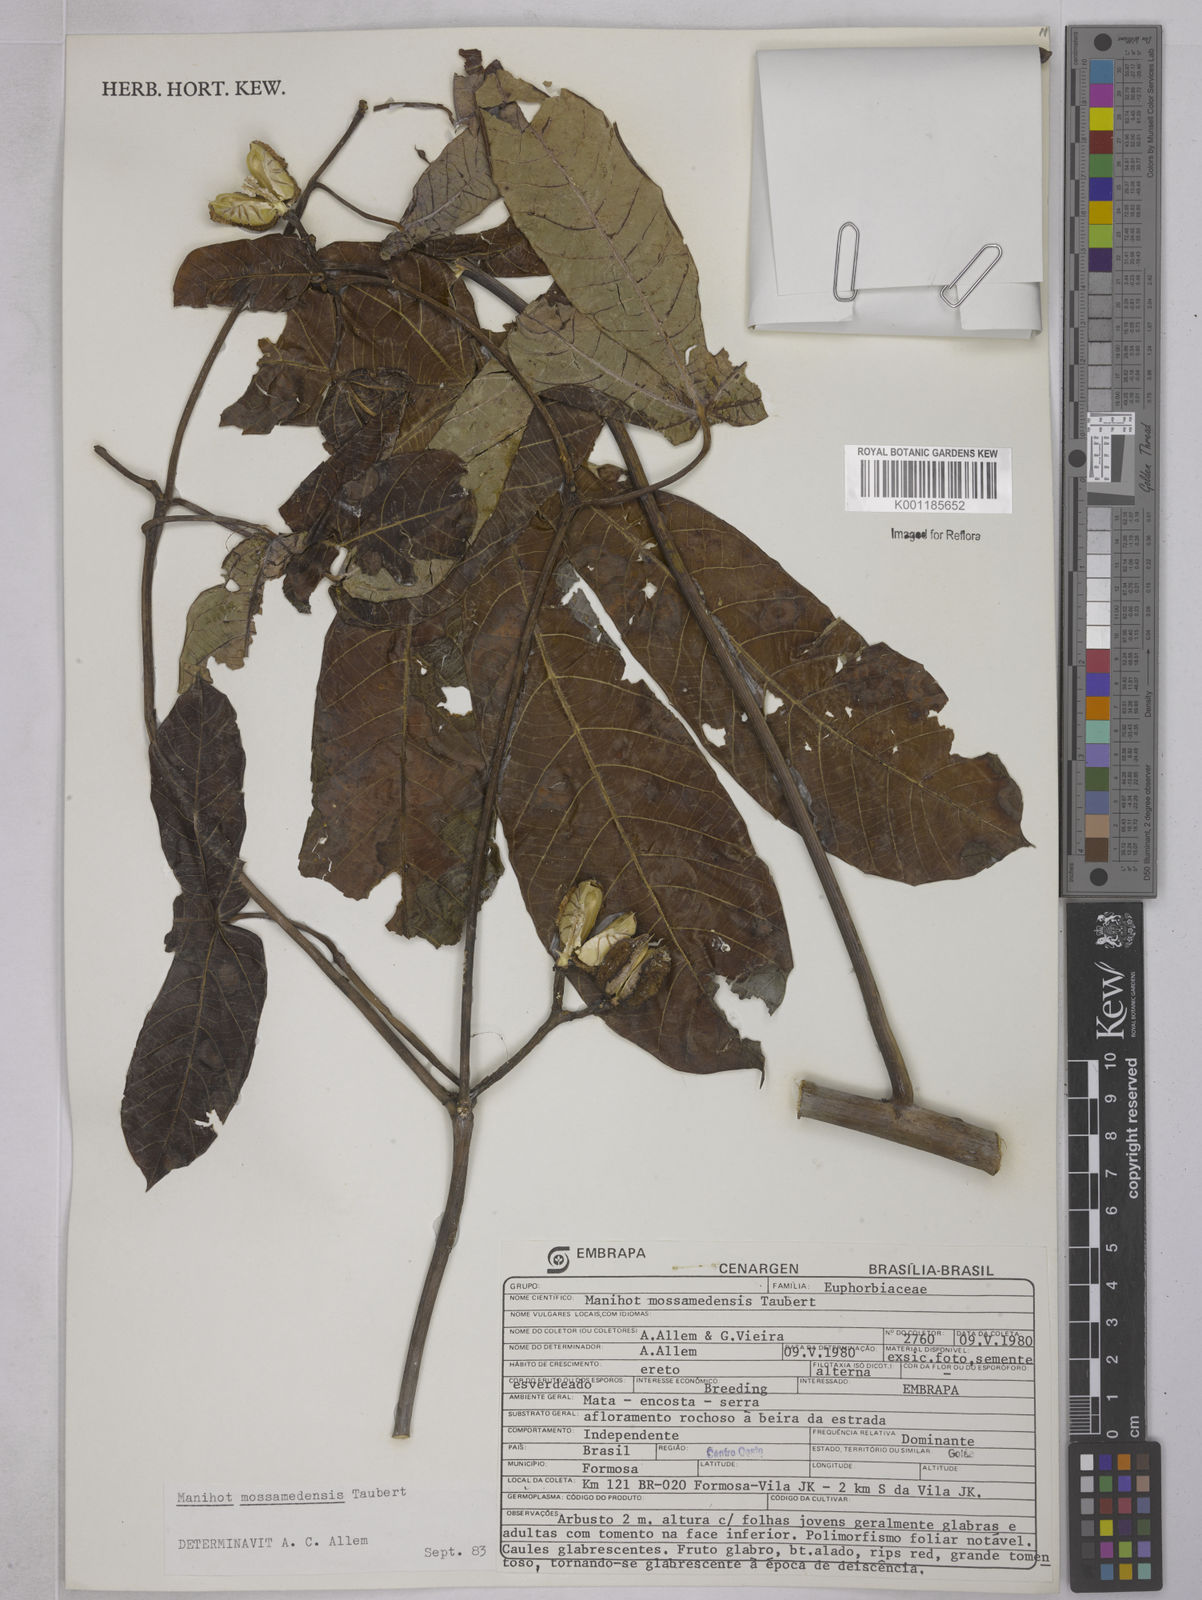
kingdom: Plantae
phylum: Tracheophyta
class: Magnoliopsida
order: Malpighiales
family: Euphorbiaceae
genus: Manihot
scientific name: Manihot mossamedensis
